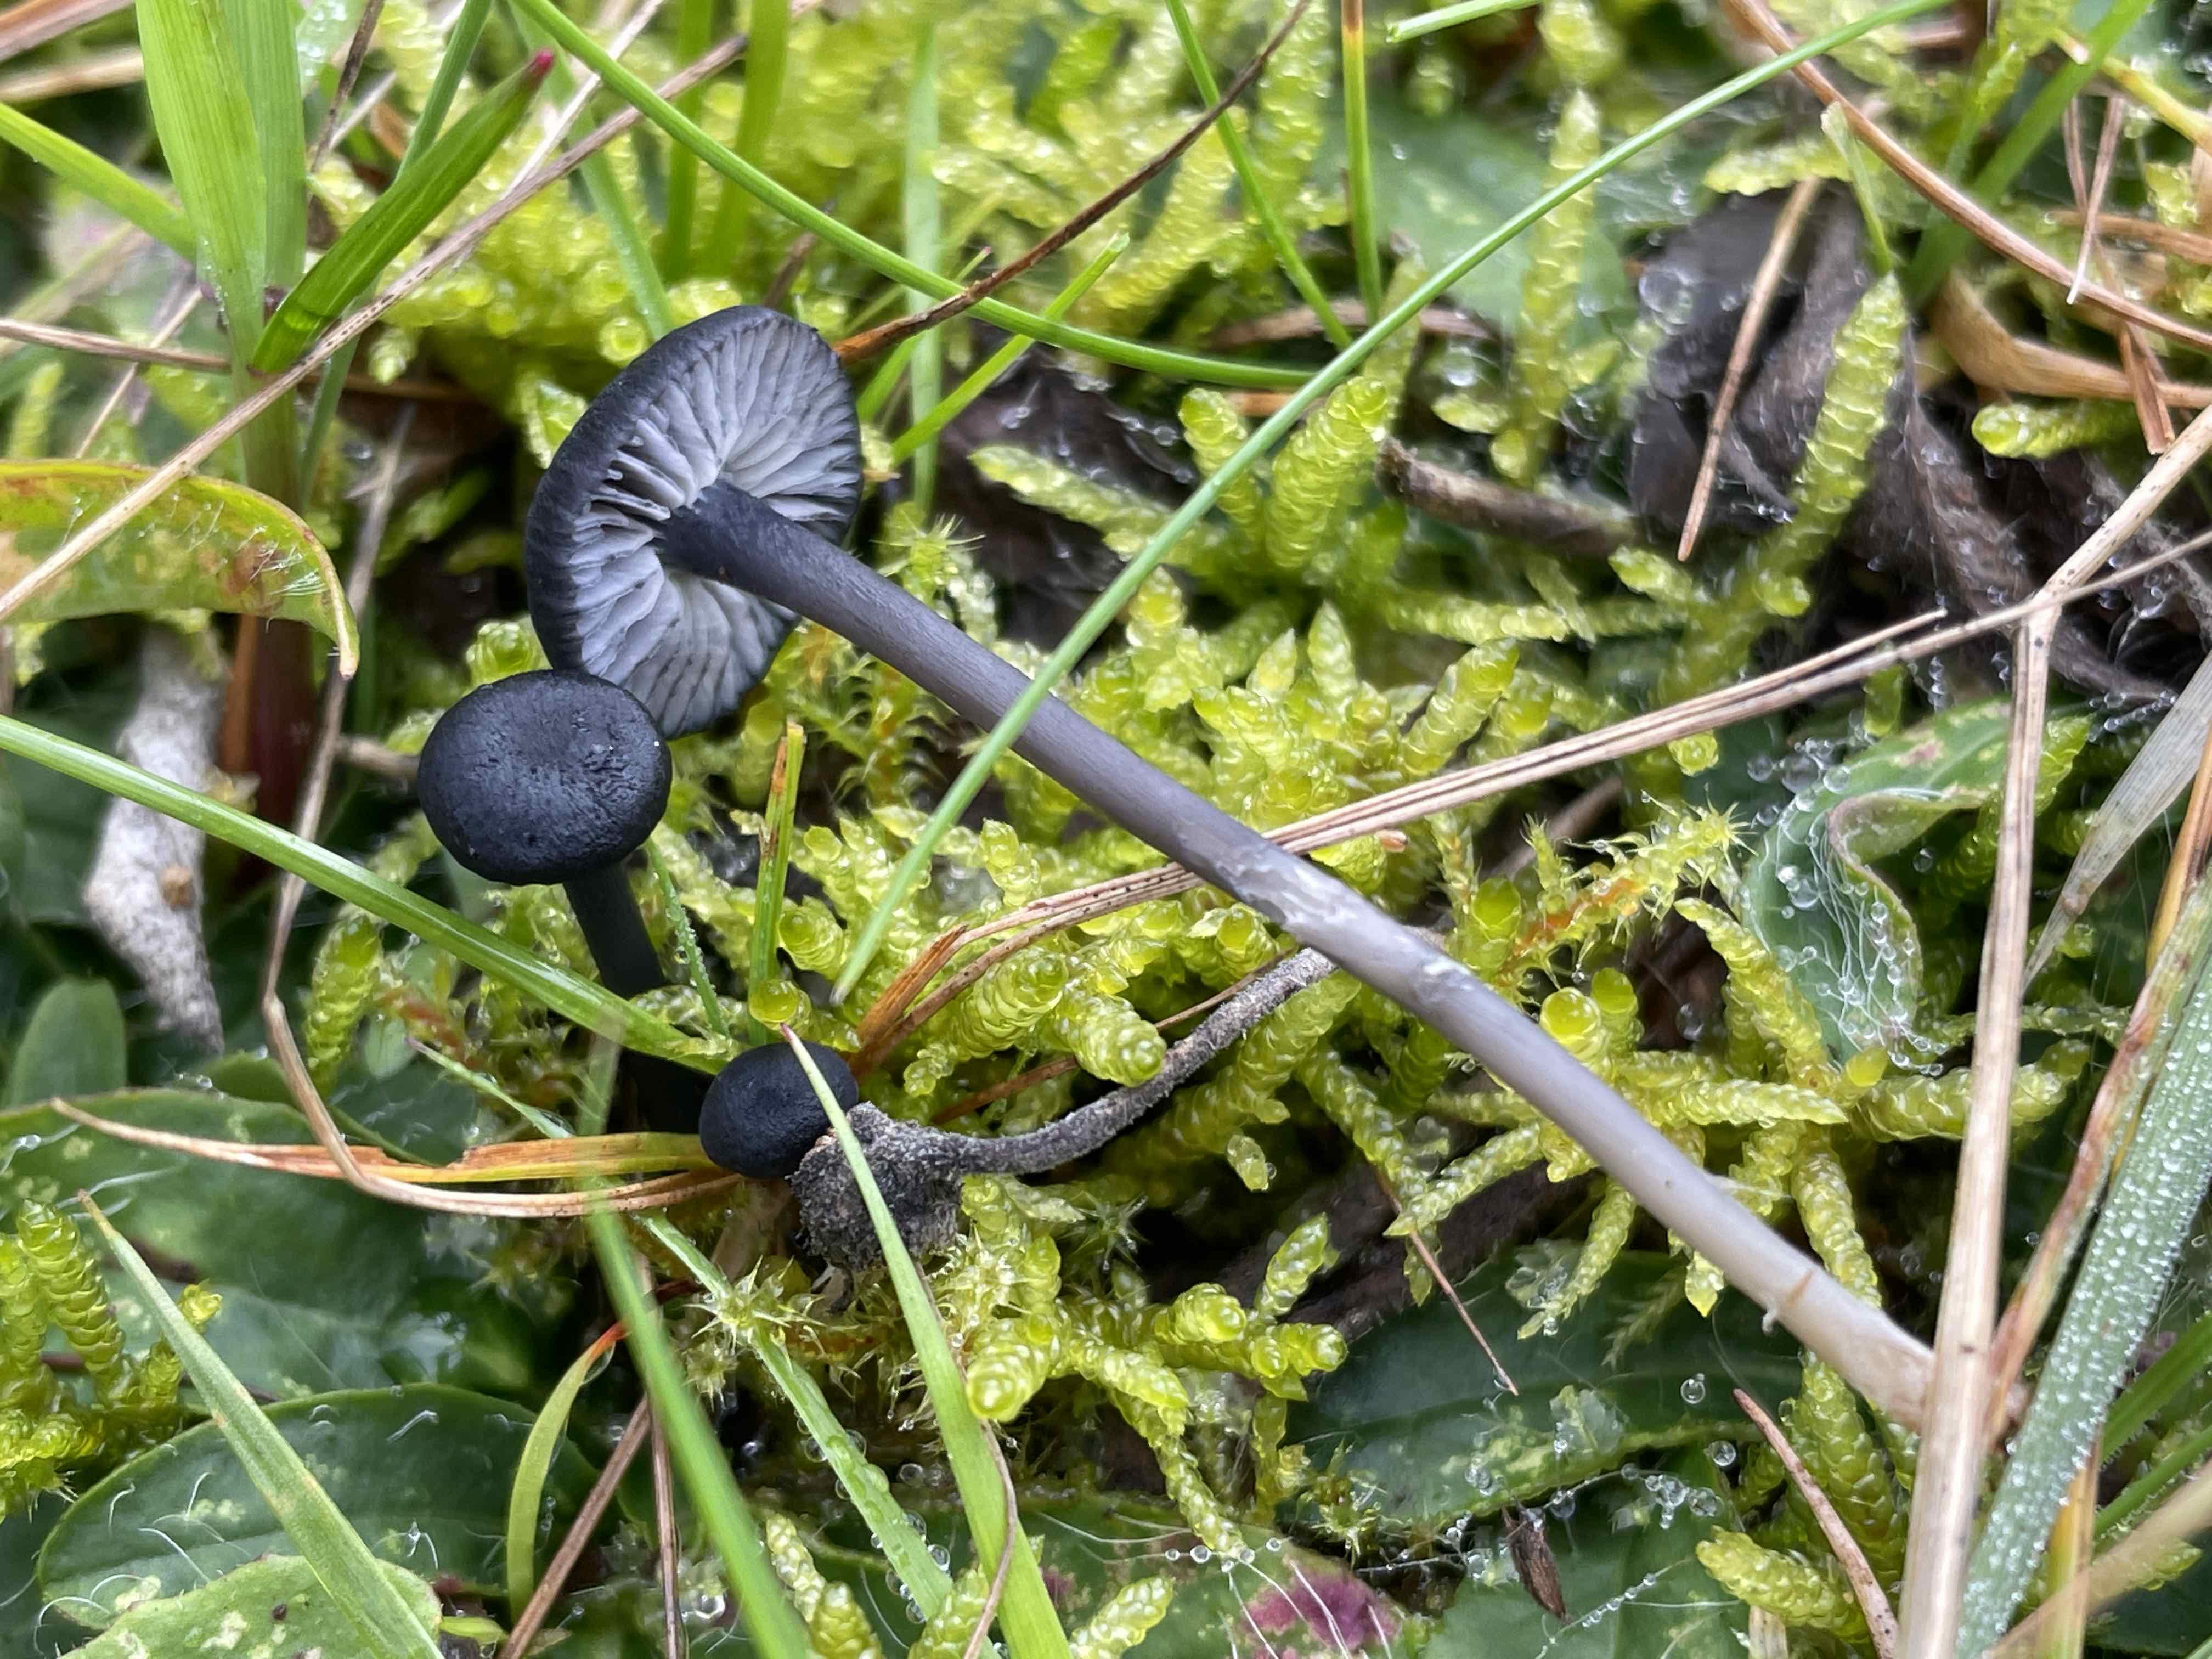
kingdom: Fungi
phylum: Basidiomycota
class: Agaricomycetes
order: Agaricales
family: Entolomataceae
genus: Entoloma
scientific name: Entoloma
